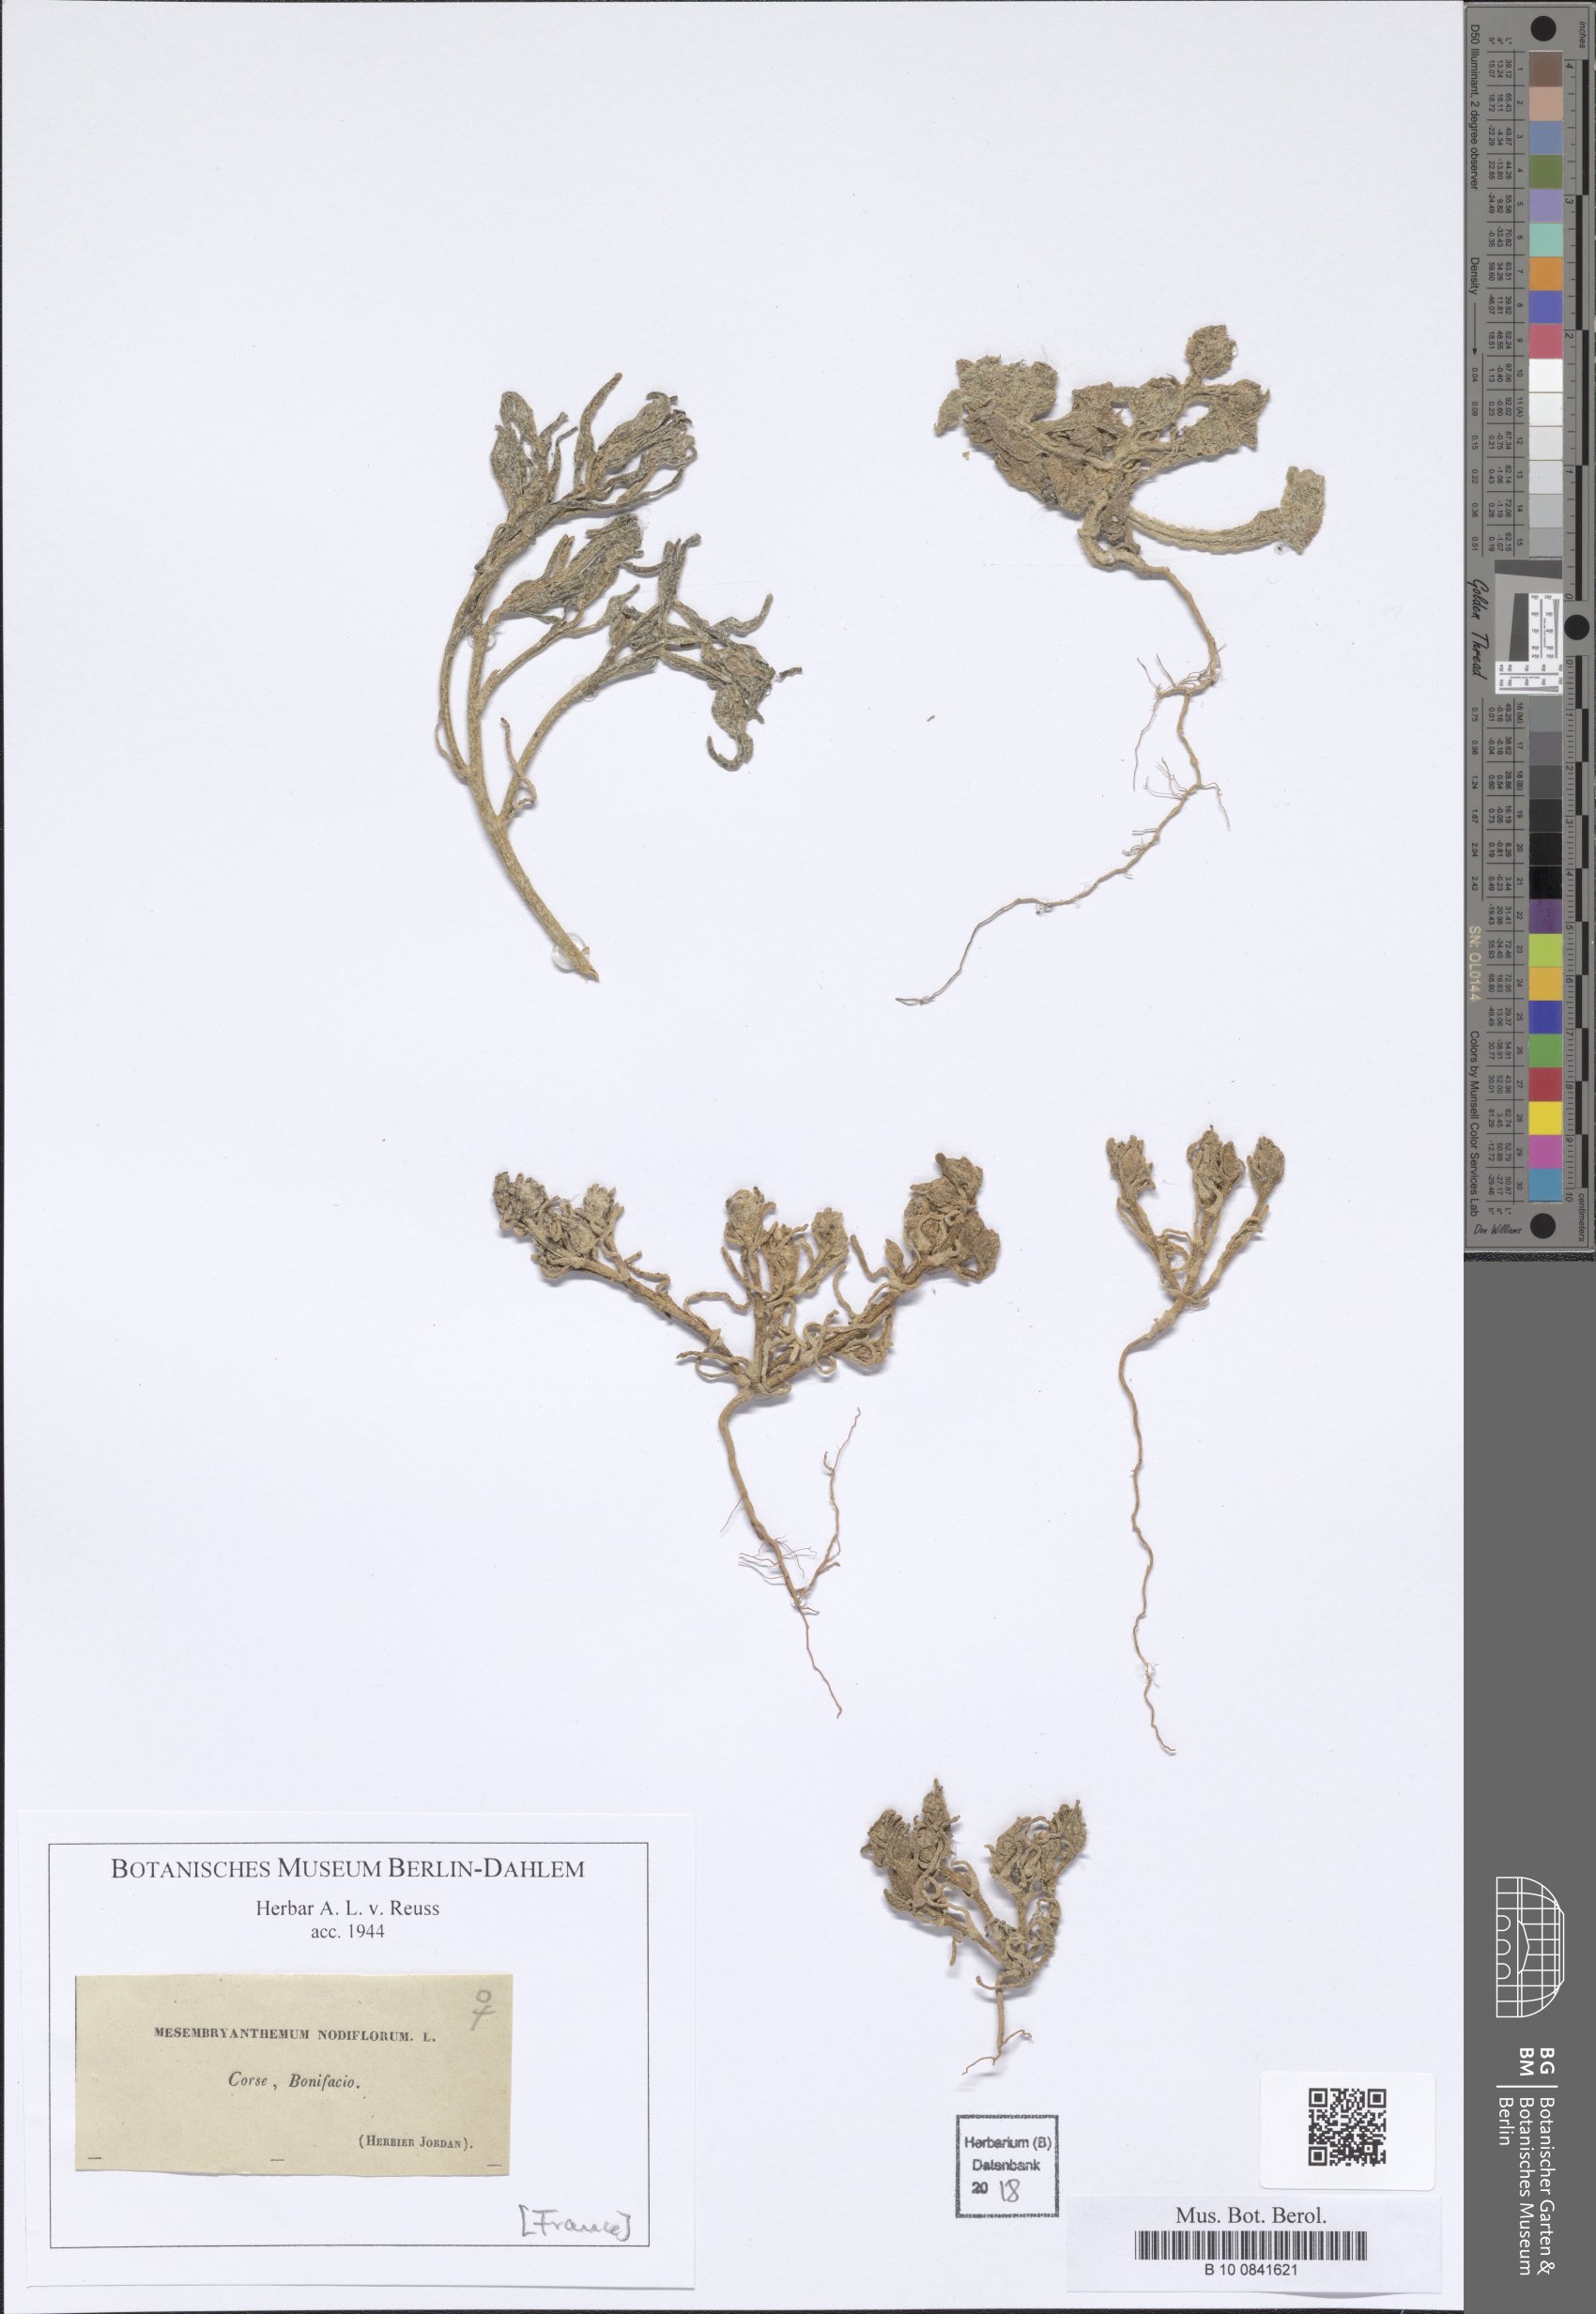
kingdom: Plantae
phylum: Tracheophyta
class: Magnoliopsida
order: Caryophyllales
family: Aizoaceae
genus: Mesembryanthemum
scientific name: Mesembryanthemum nodiflorum
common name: Slenderleaf iceplant
